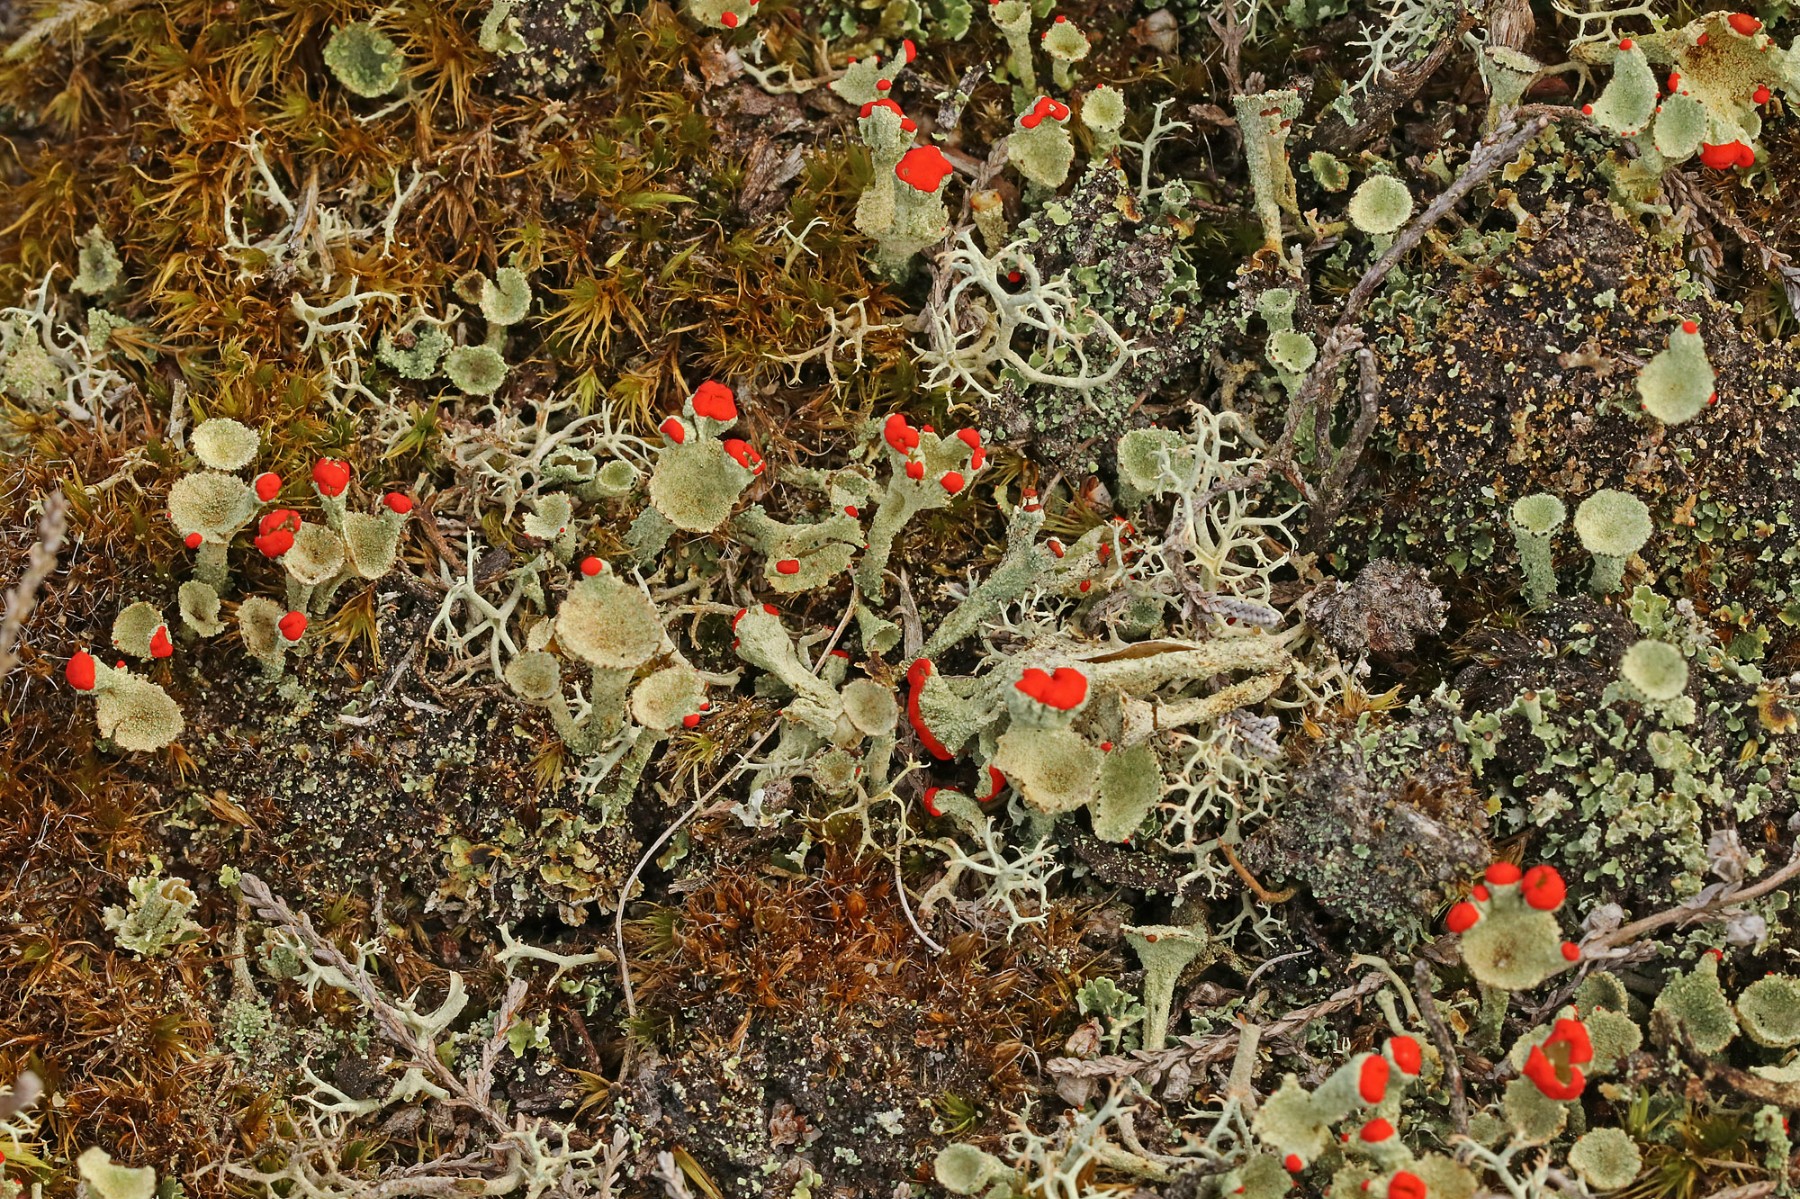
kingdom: Fungi
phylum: Ascomycota
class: Lecanoromycetes
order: Lecanorales
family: Cladoniaceae
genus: Cladonia
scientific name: Cladonia diversa
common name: rød bægerlav
